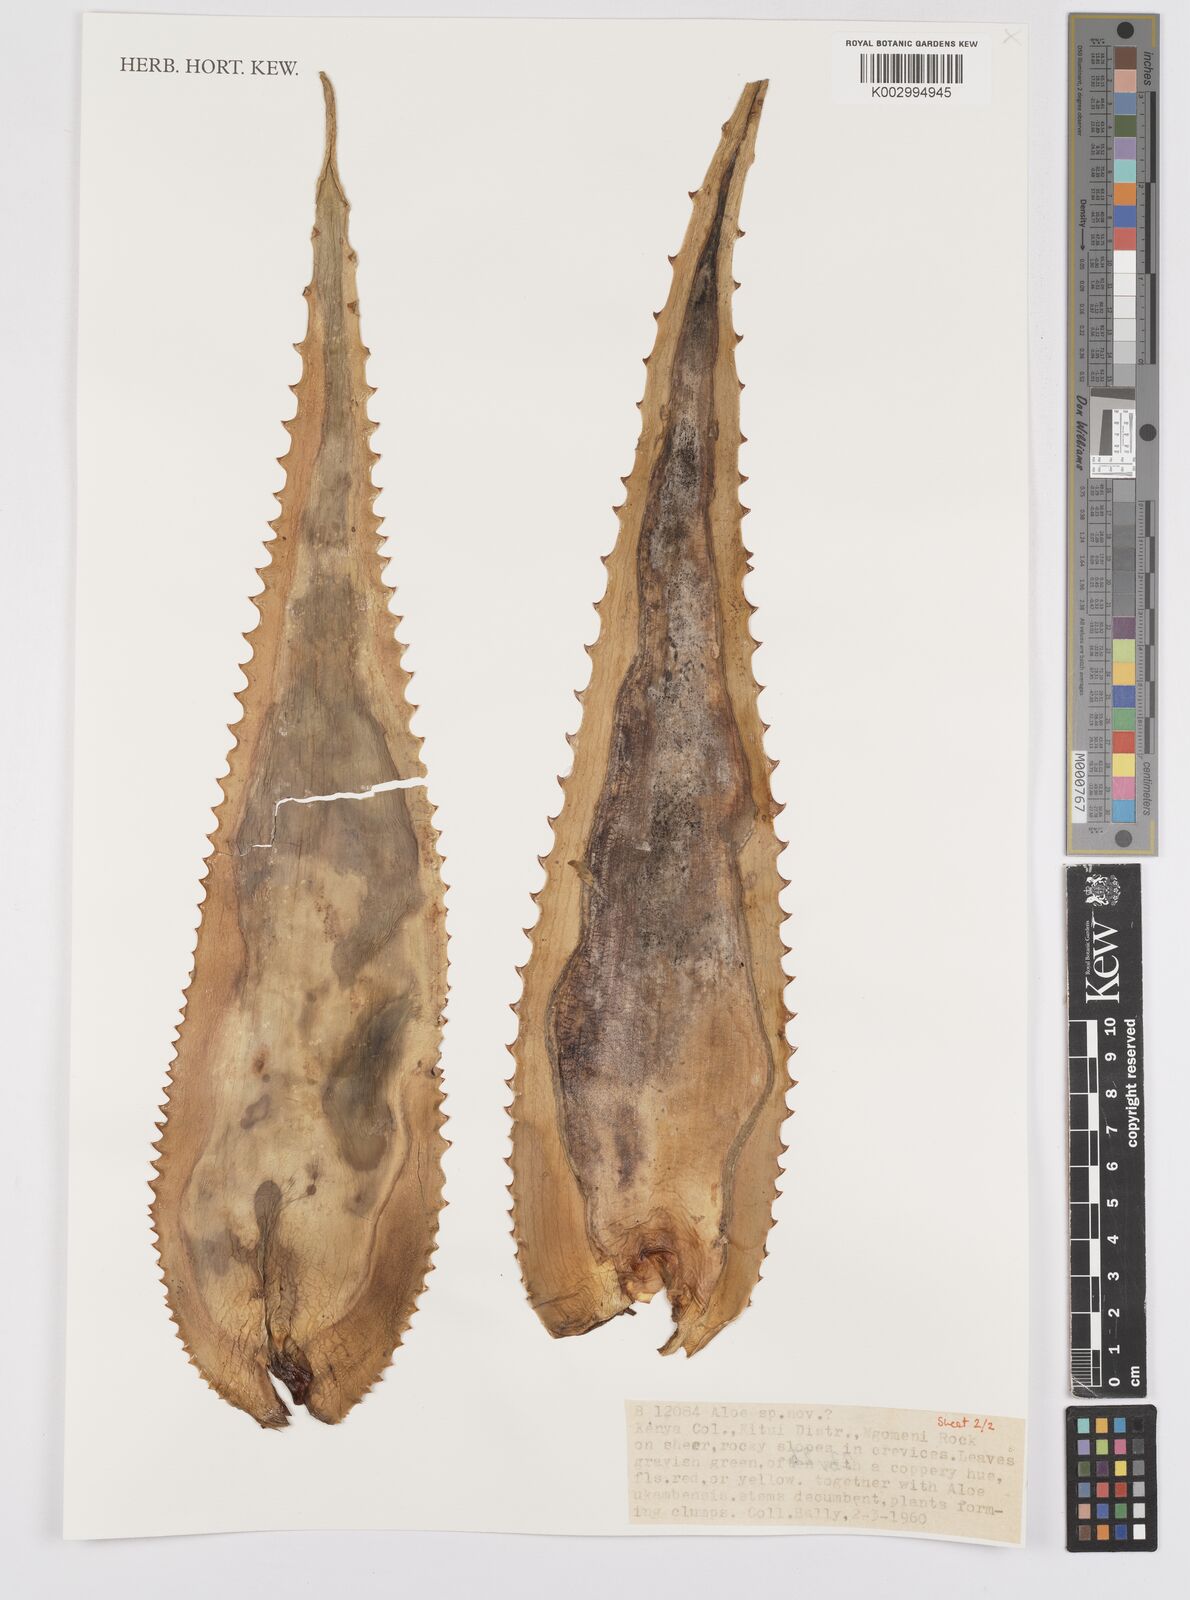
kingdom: Plantae
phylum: Tracheophyta
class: Liliopsida
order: Asparagales
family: Asphodelaceae
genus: Aloe
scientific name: Aloe
